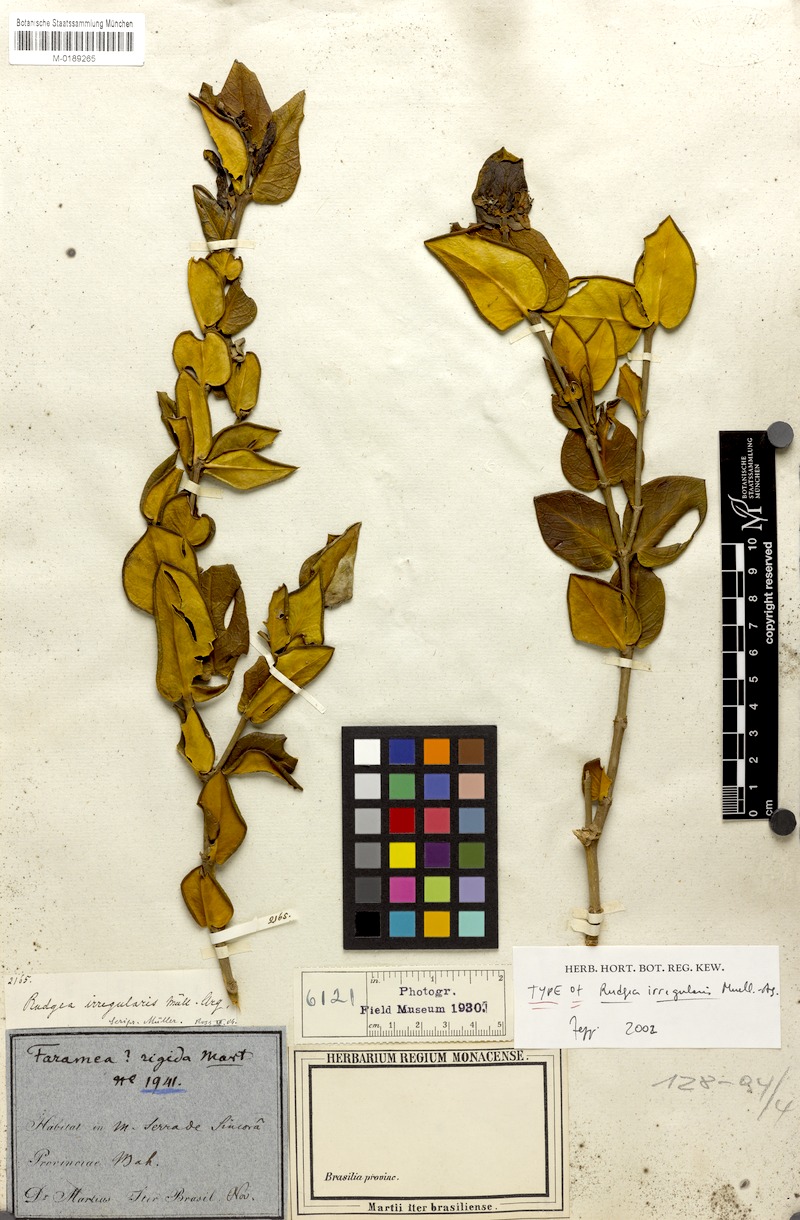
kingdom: Plantae
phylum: Tracheophyta
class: Magnoliopsida
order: Gentianales
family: Rubiaceae
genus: Rudgea
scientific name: Rudgea irregularis
